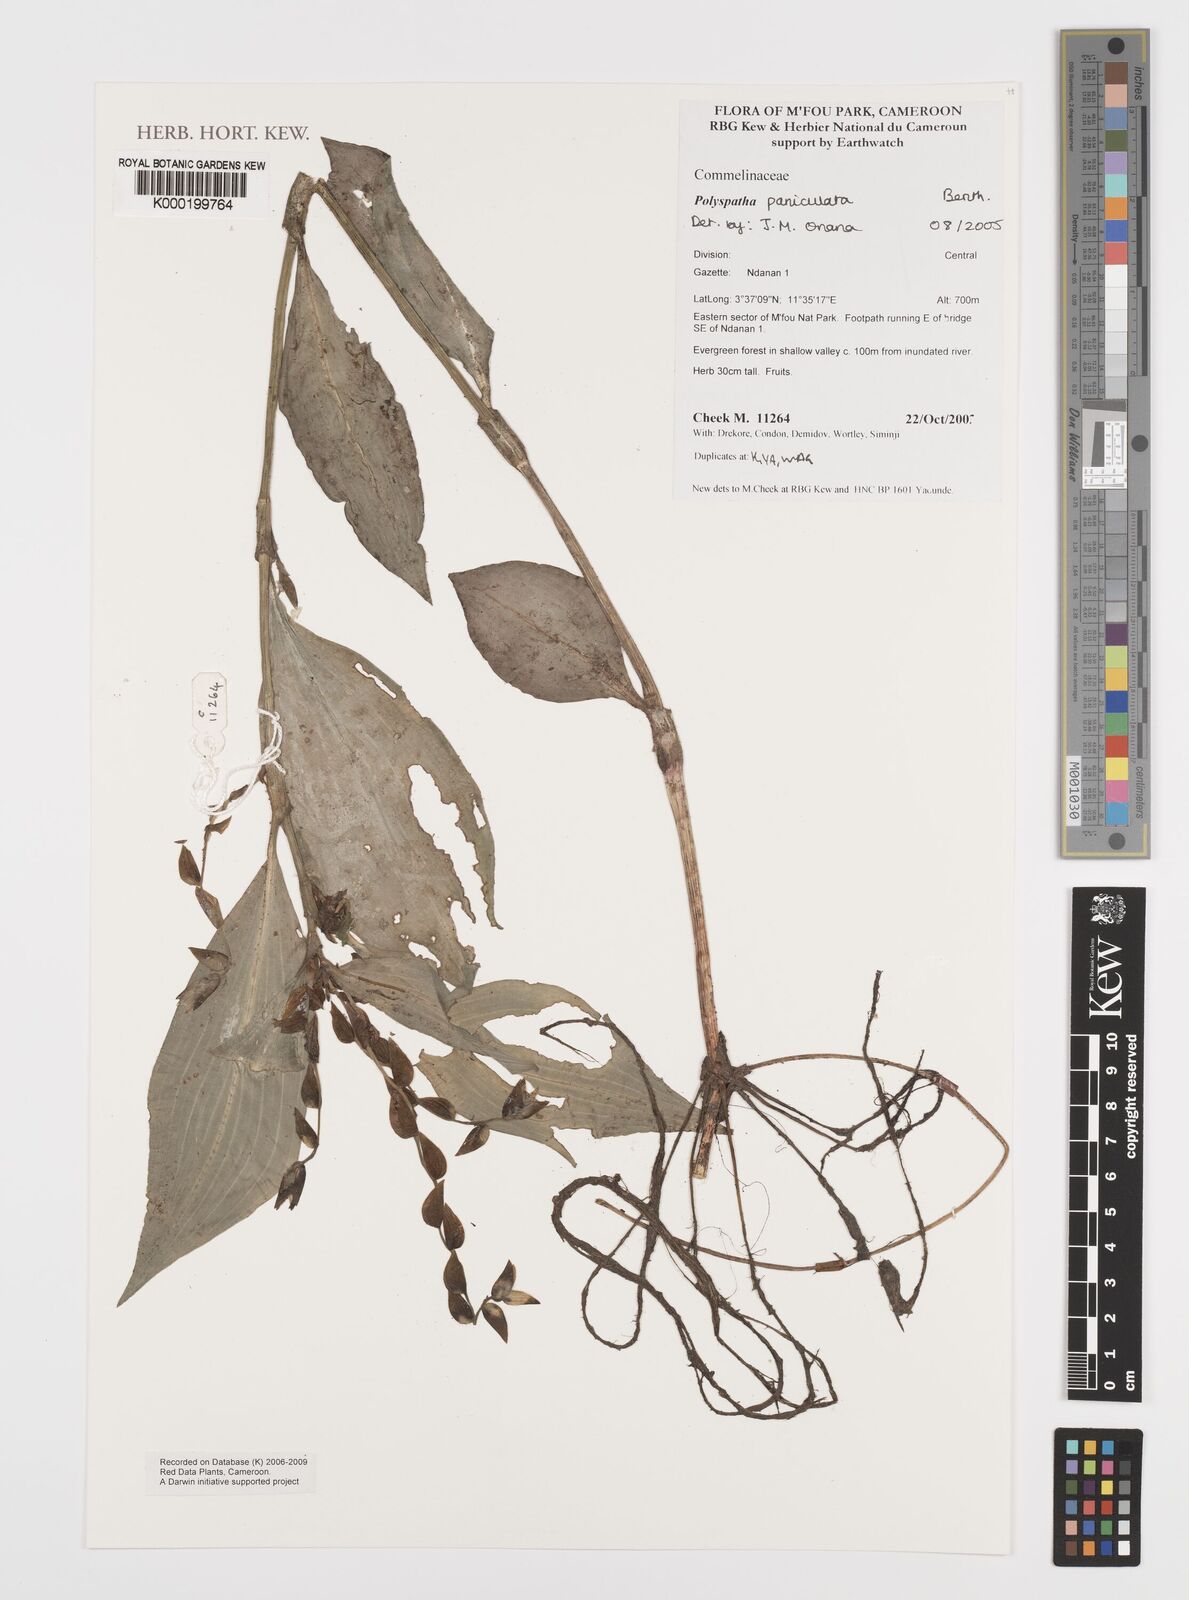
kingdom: Plantae
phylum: Tracheophyta
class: Liliopsida
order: Commelinales
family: Commelinaceae
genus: Polyspatha
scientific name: Polyspatha paniculata
